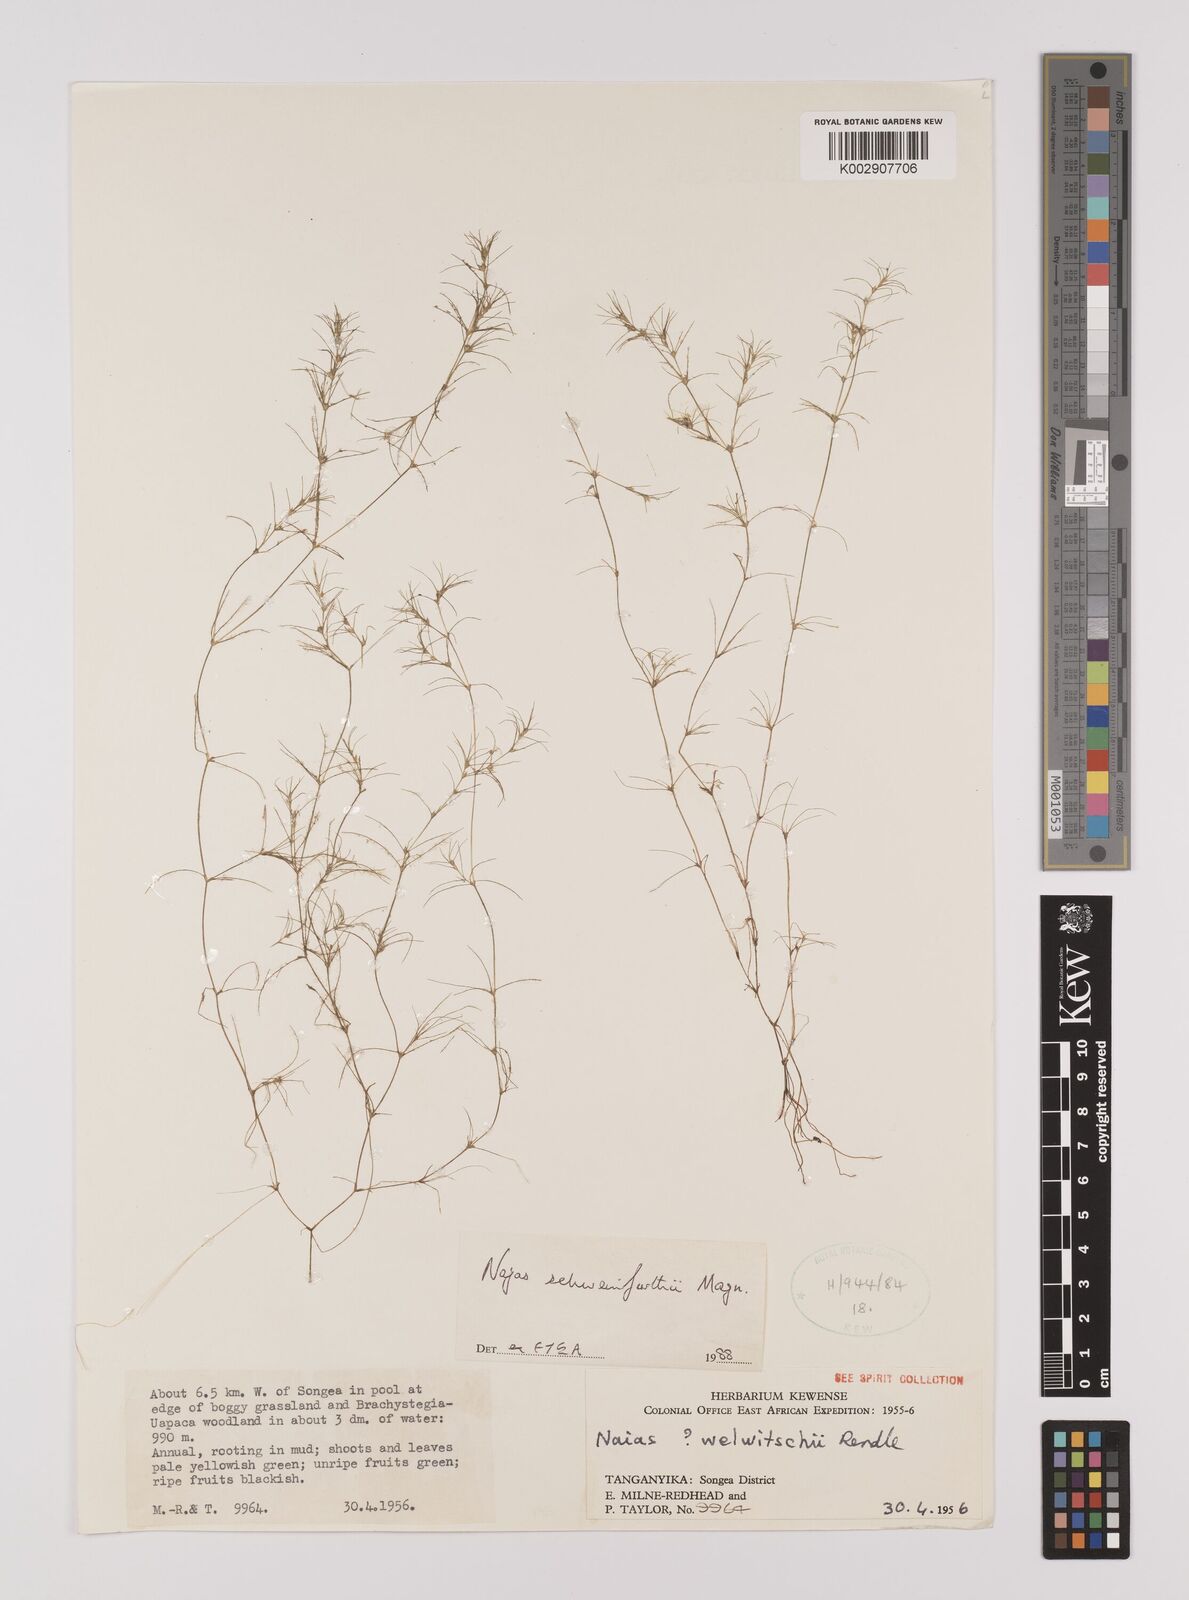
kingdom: Plantae
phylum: Tracheophyta
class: Liliopsida
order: Alismatales
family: Hydrocharitaceae
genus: Najas
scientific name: Najas schweinfurthii
